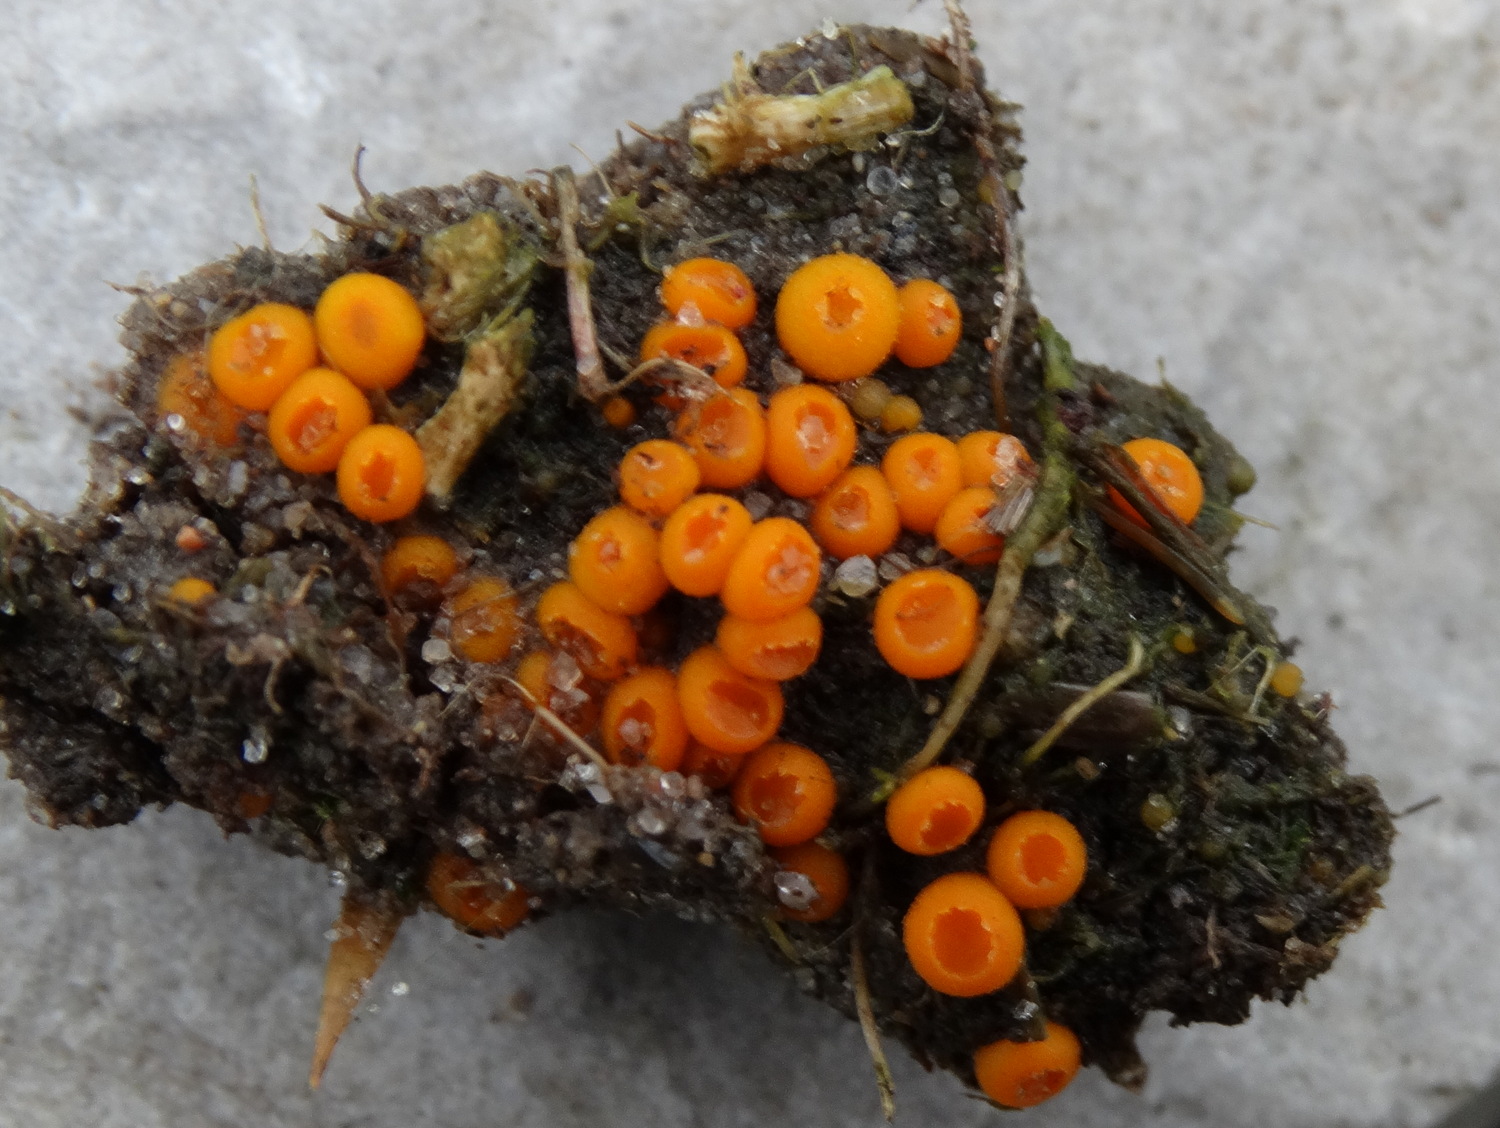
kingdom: Fungi
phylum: Ascomycota
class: Pezizomycetes
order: Pezizales
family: Pyronemataceae
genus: Byssonectria
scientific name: Byssonectria terrestris
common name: hjortebæger
